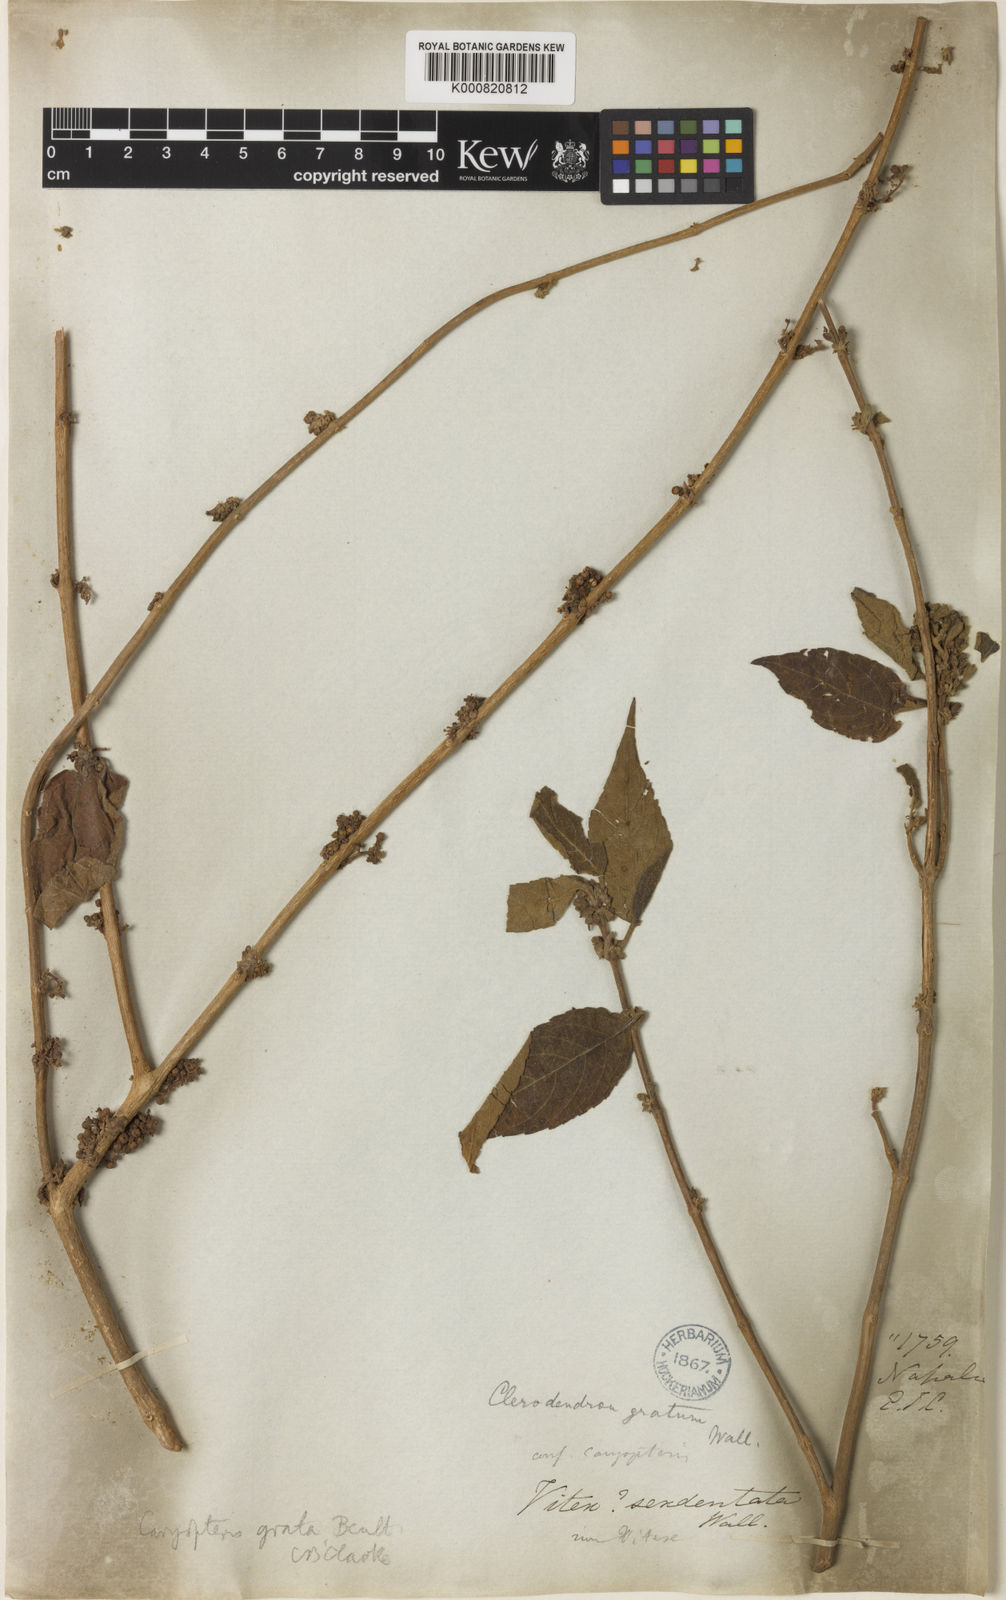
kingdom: Plantae
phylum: Tracheophyta
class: Magnoliopsida
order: Lamiales
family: Lamiaceae
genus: Pseudocaryopteris
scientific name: Pseudocaryopteris foetida
